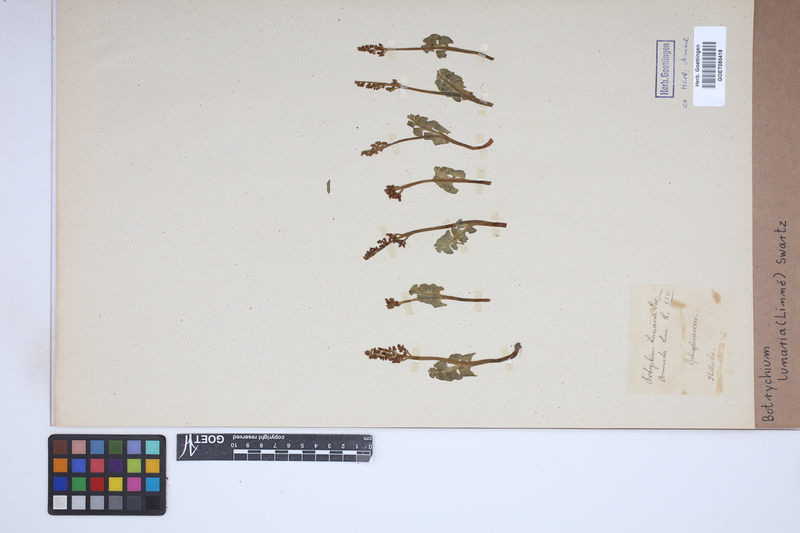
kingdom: Plantae
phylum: Tracheophyta
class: Polypodiopsida
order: Ophioglossales
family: Ophioglossaceae
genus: Botrychium
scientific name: Botrychium lunaria
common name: Moonwort
